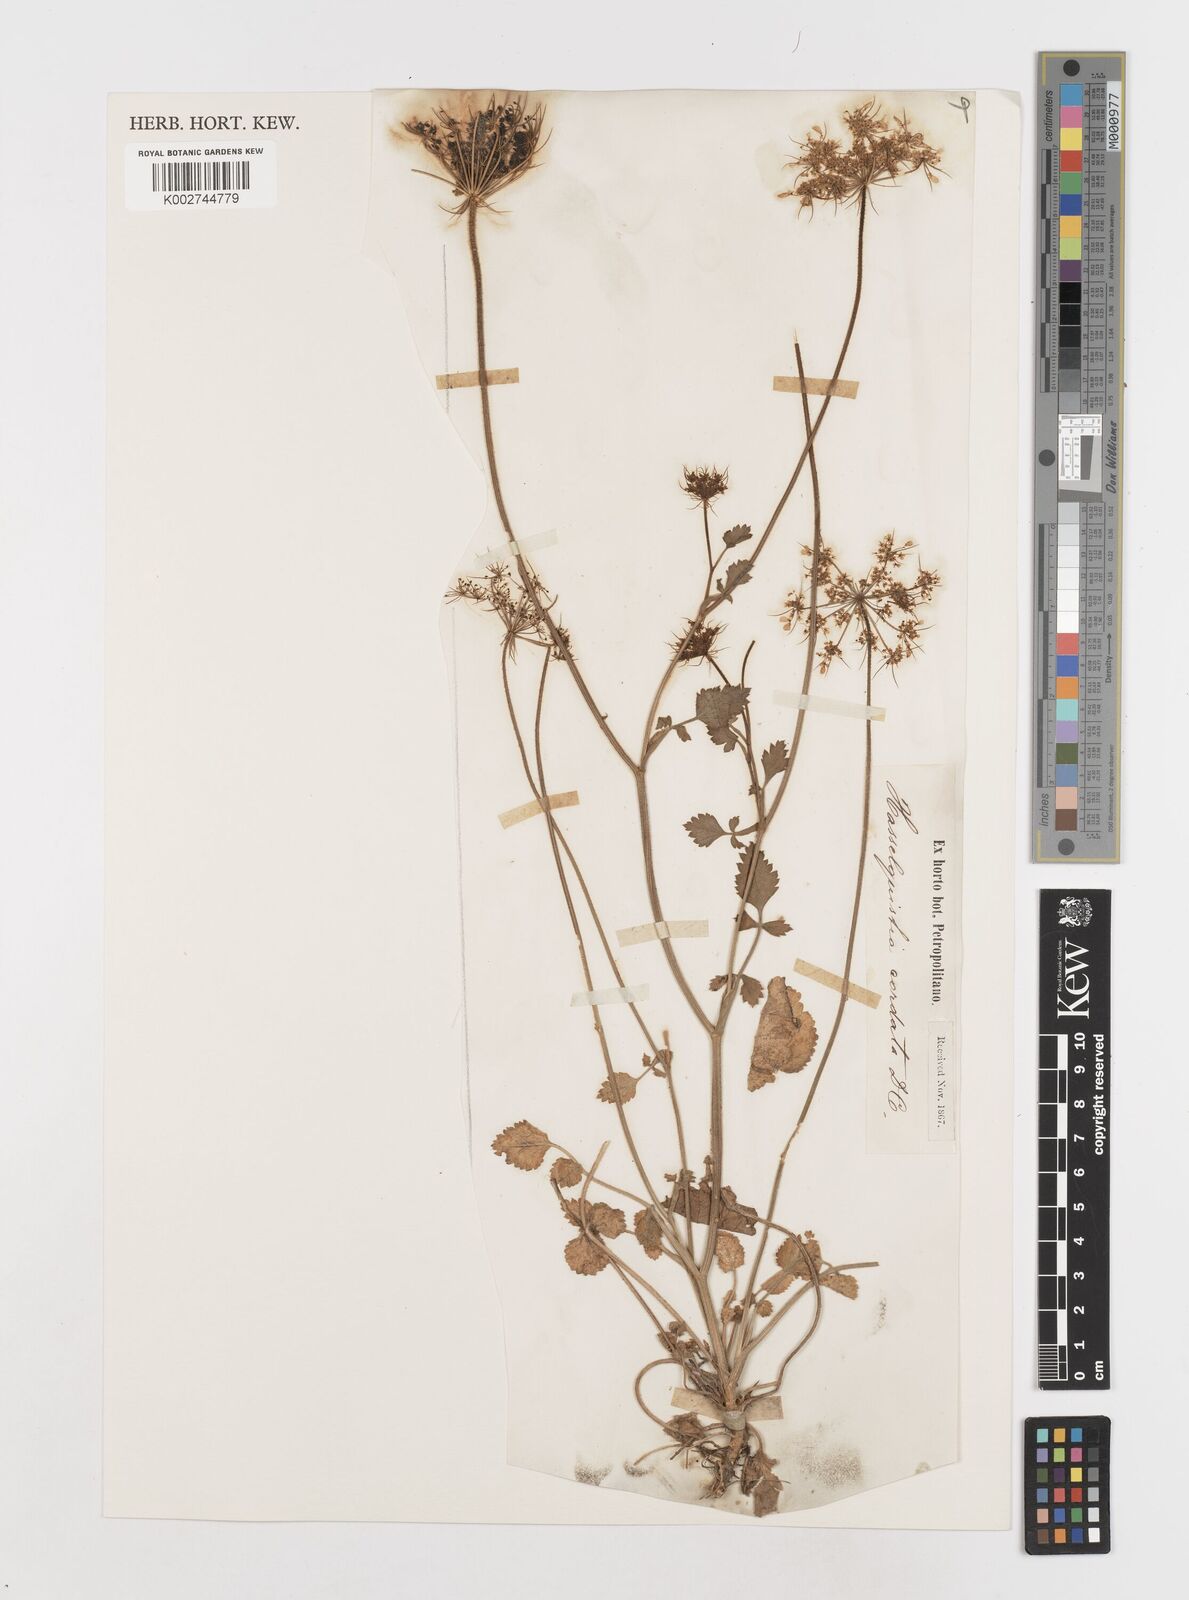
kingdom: Plantae
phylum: Tracheophyta
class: Magnoliopsida
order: Apiales
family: Apiaceae
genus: Ainsworthia
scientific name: Ainsworthia cordata
